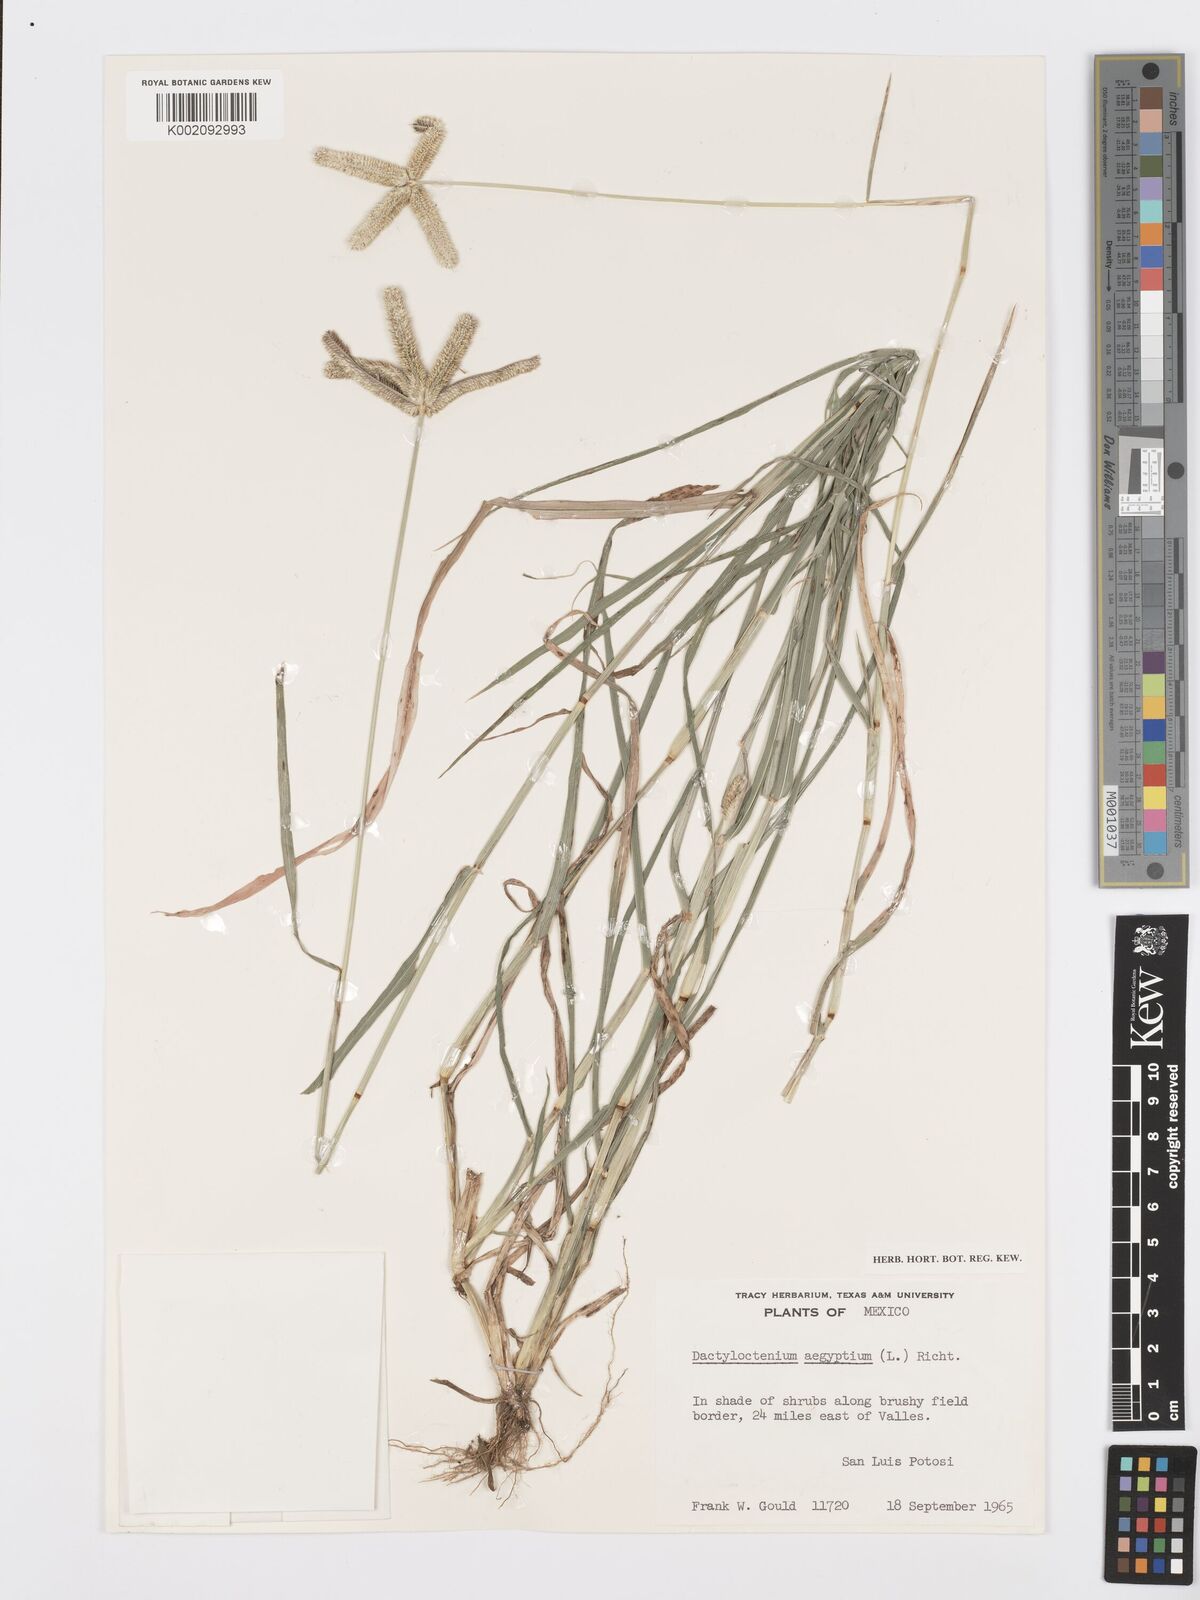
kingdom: Plantae
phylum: Tracheophyta
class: Liliopsida
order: Poales
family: Poaceae
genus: Dactyloctenium
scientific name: Dactyloctenium aegyptium
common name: Egyptian grass
